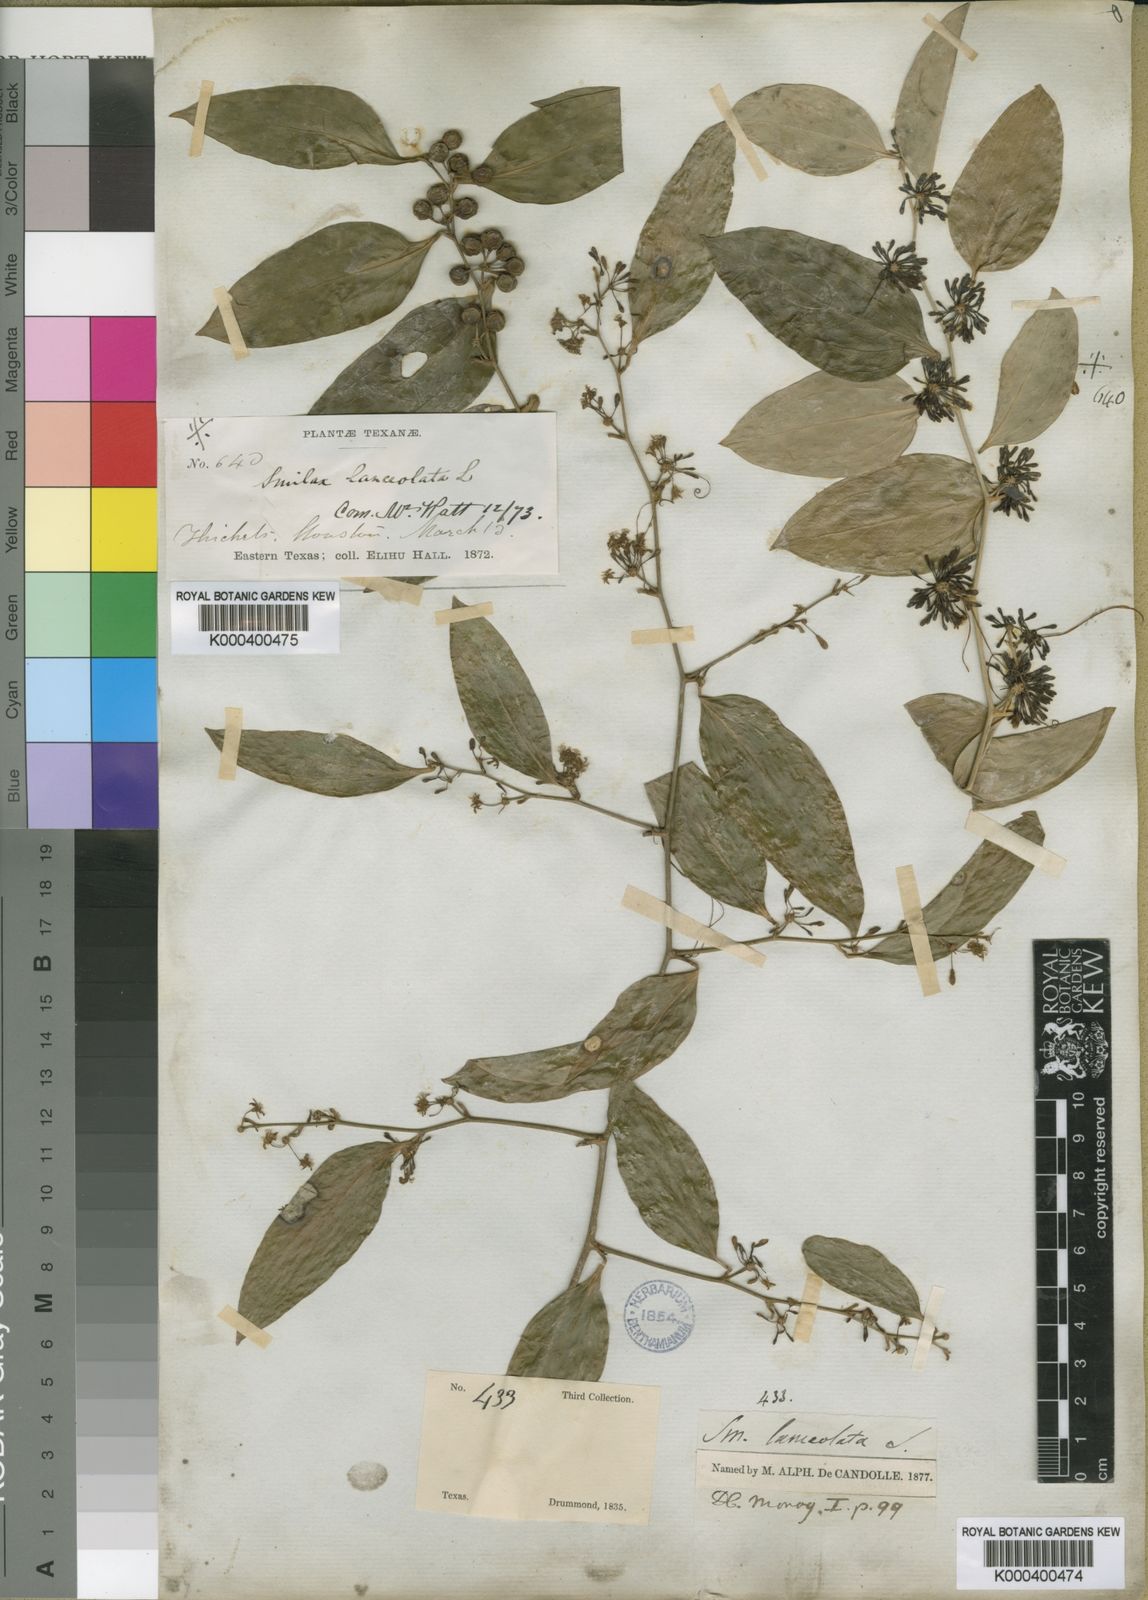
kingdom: Plantae
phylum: Tracheophyta
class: Liliopsida
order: Liliales
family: Smilacaceae
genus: Smilax
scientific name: Smilax maritima
